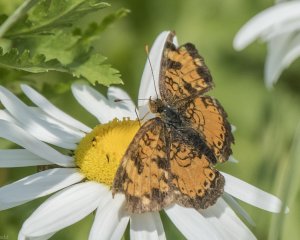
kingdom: Animalia
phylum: Arthropoda
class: Insecta
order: Lepidoptera
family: Nymphalidae
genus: Phyciodes
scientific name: Phyciodes tharos
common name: Northern Crescent
